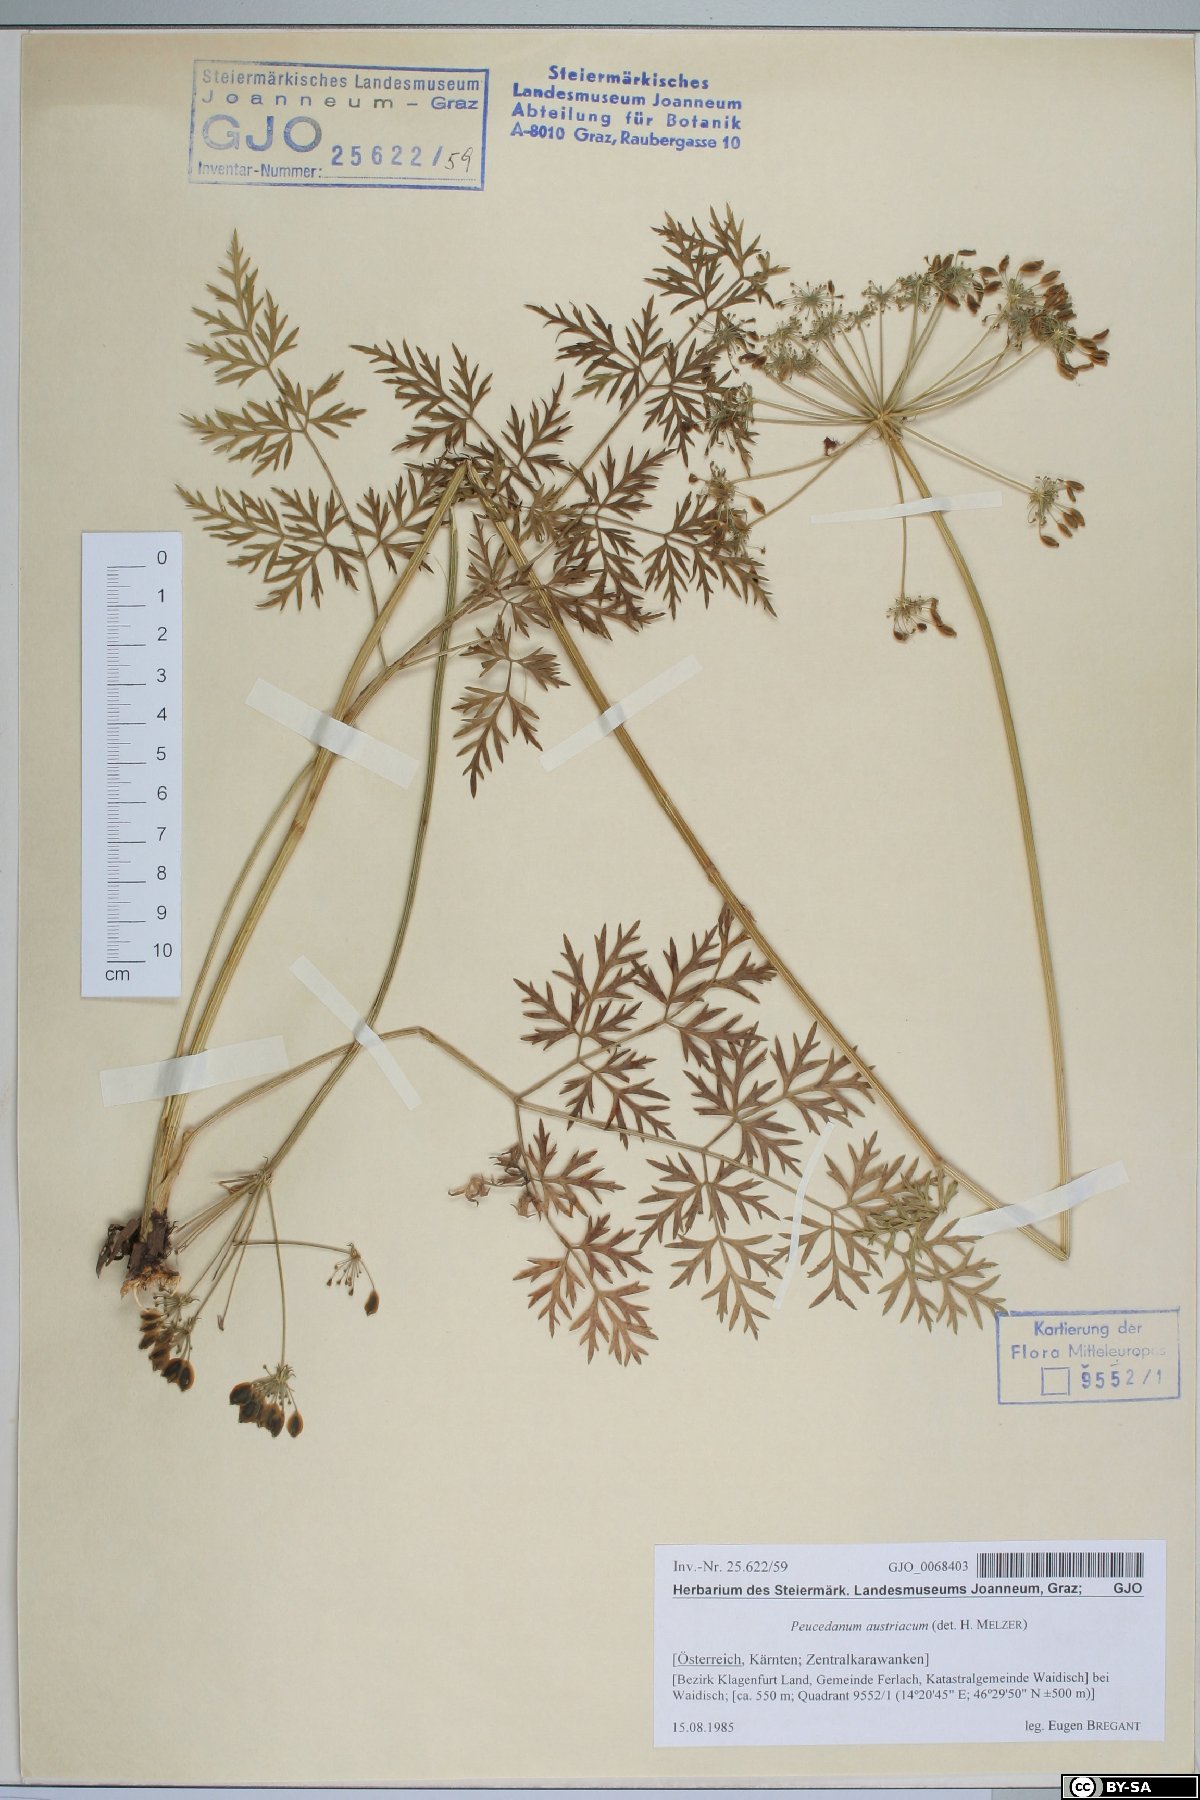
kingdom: Plantae
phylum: Tracheophyta
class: Magnoliopsida
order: Apiales
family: Apiaceae
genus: Peucedanum
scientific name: Peucedanum austriacum
